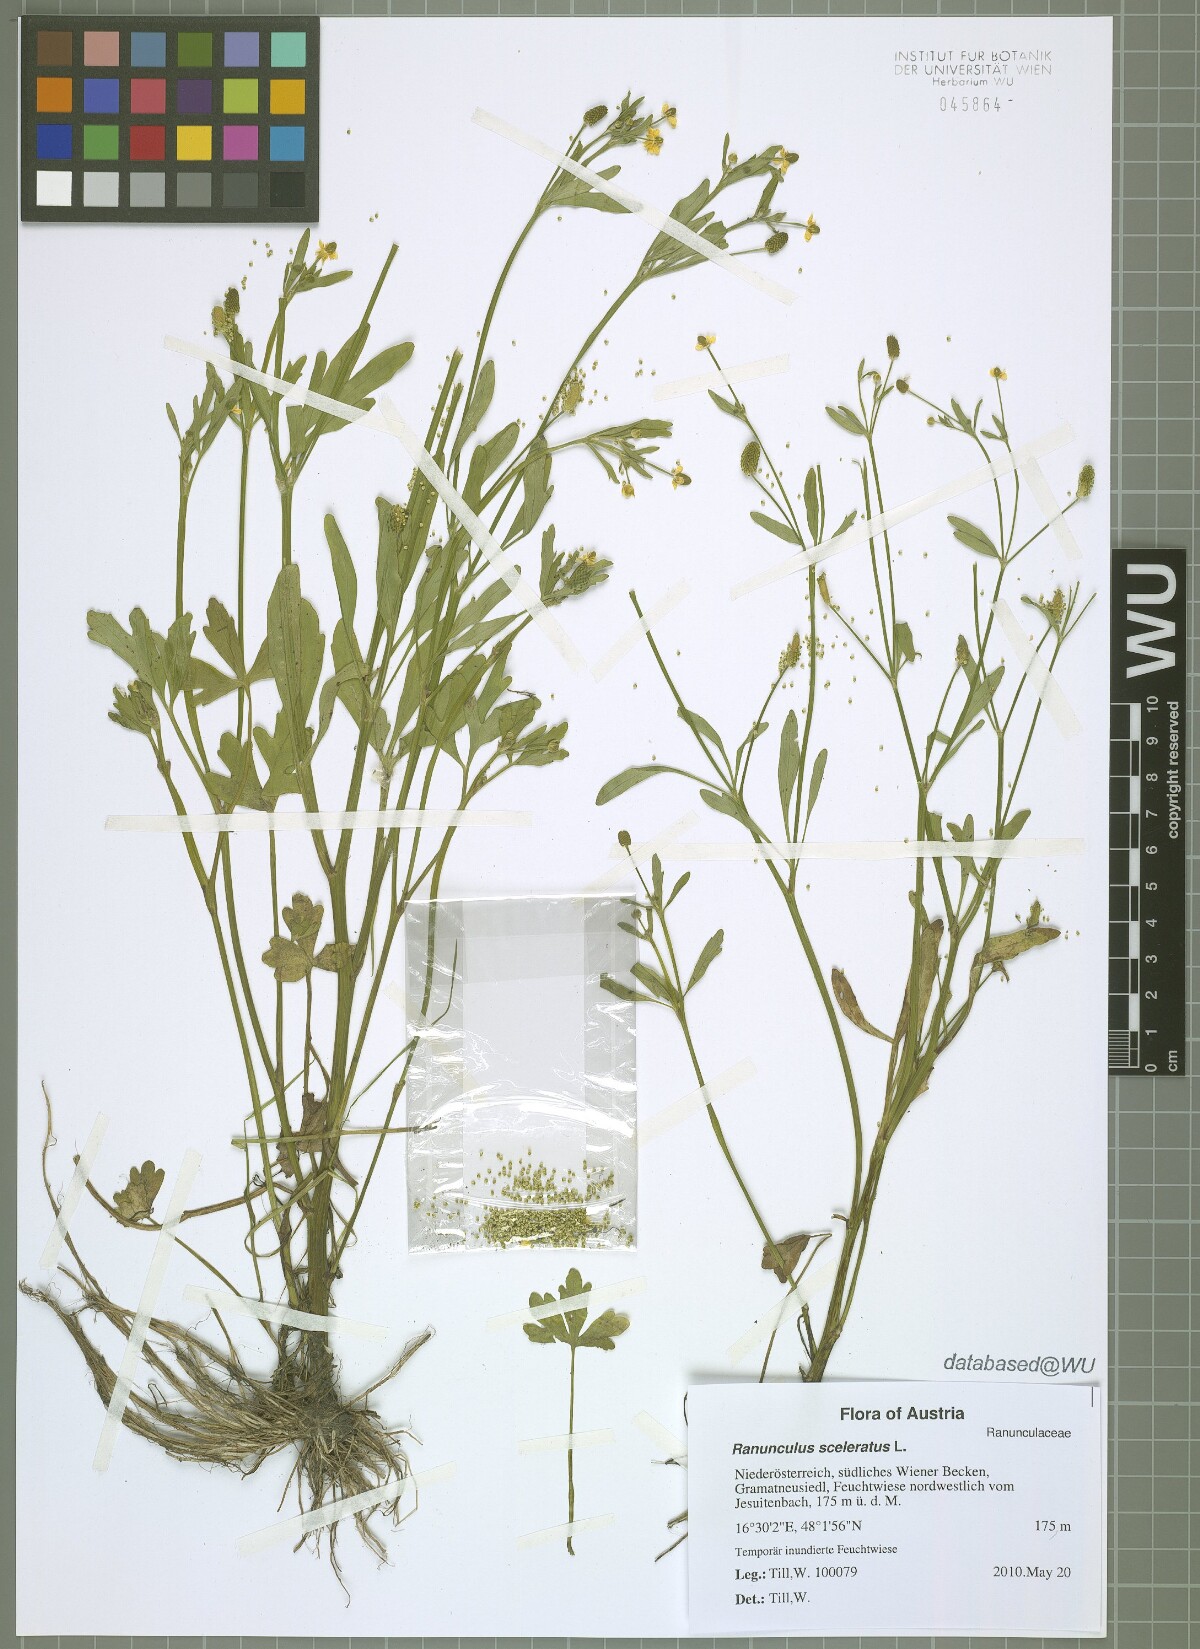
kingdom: Plantae
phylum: Tracheophyta
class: Magnoliopsida
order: Ranunculales
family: Ranunculaceae
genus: Ranunculus
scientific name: Ranunculus sceleratus
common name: Celery-leaved buttercup
